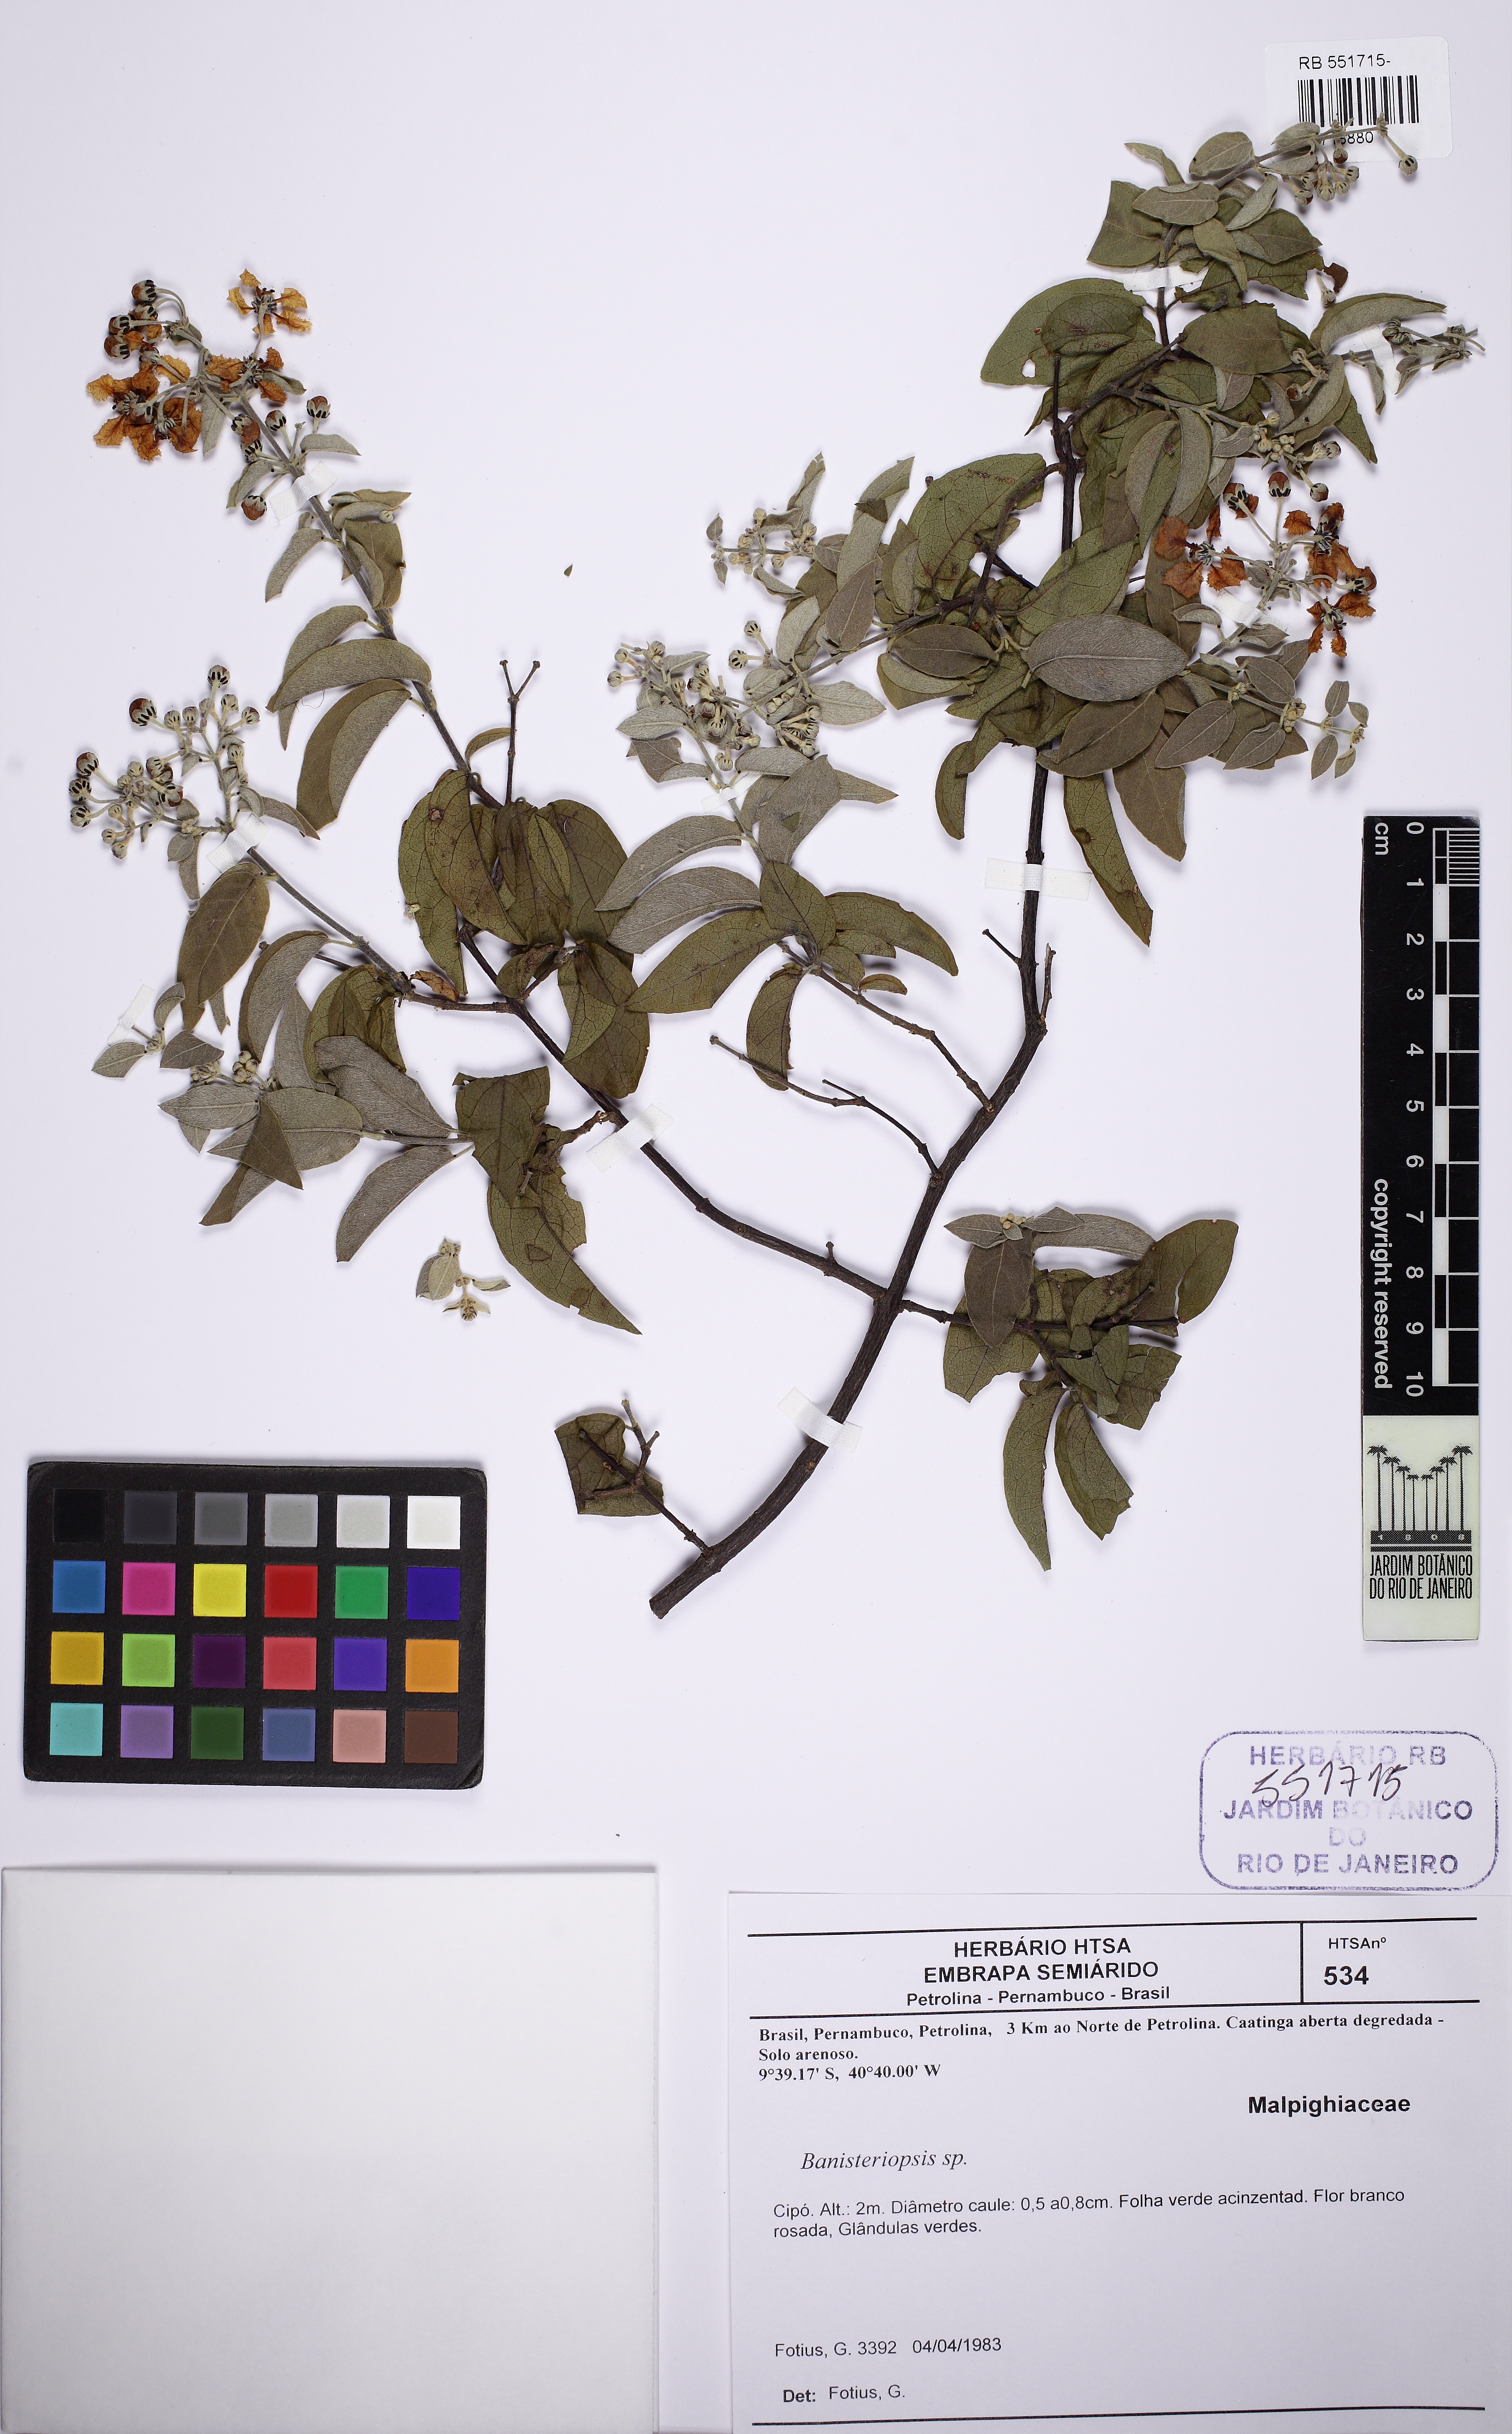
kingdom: Plantae
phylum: Tracheophyta
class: Magnoliopsida
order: Malpighiales
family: Malpighiaceae
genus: Banisteriopsis
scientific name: Banisteriopsis
